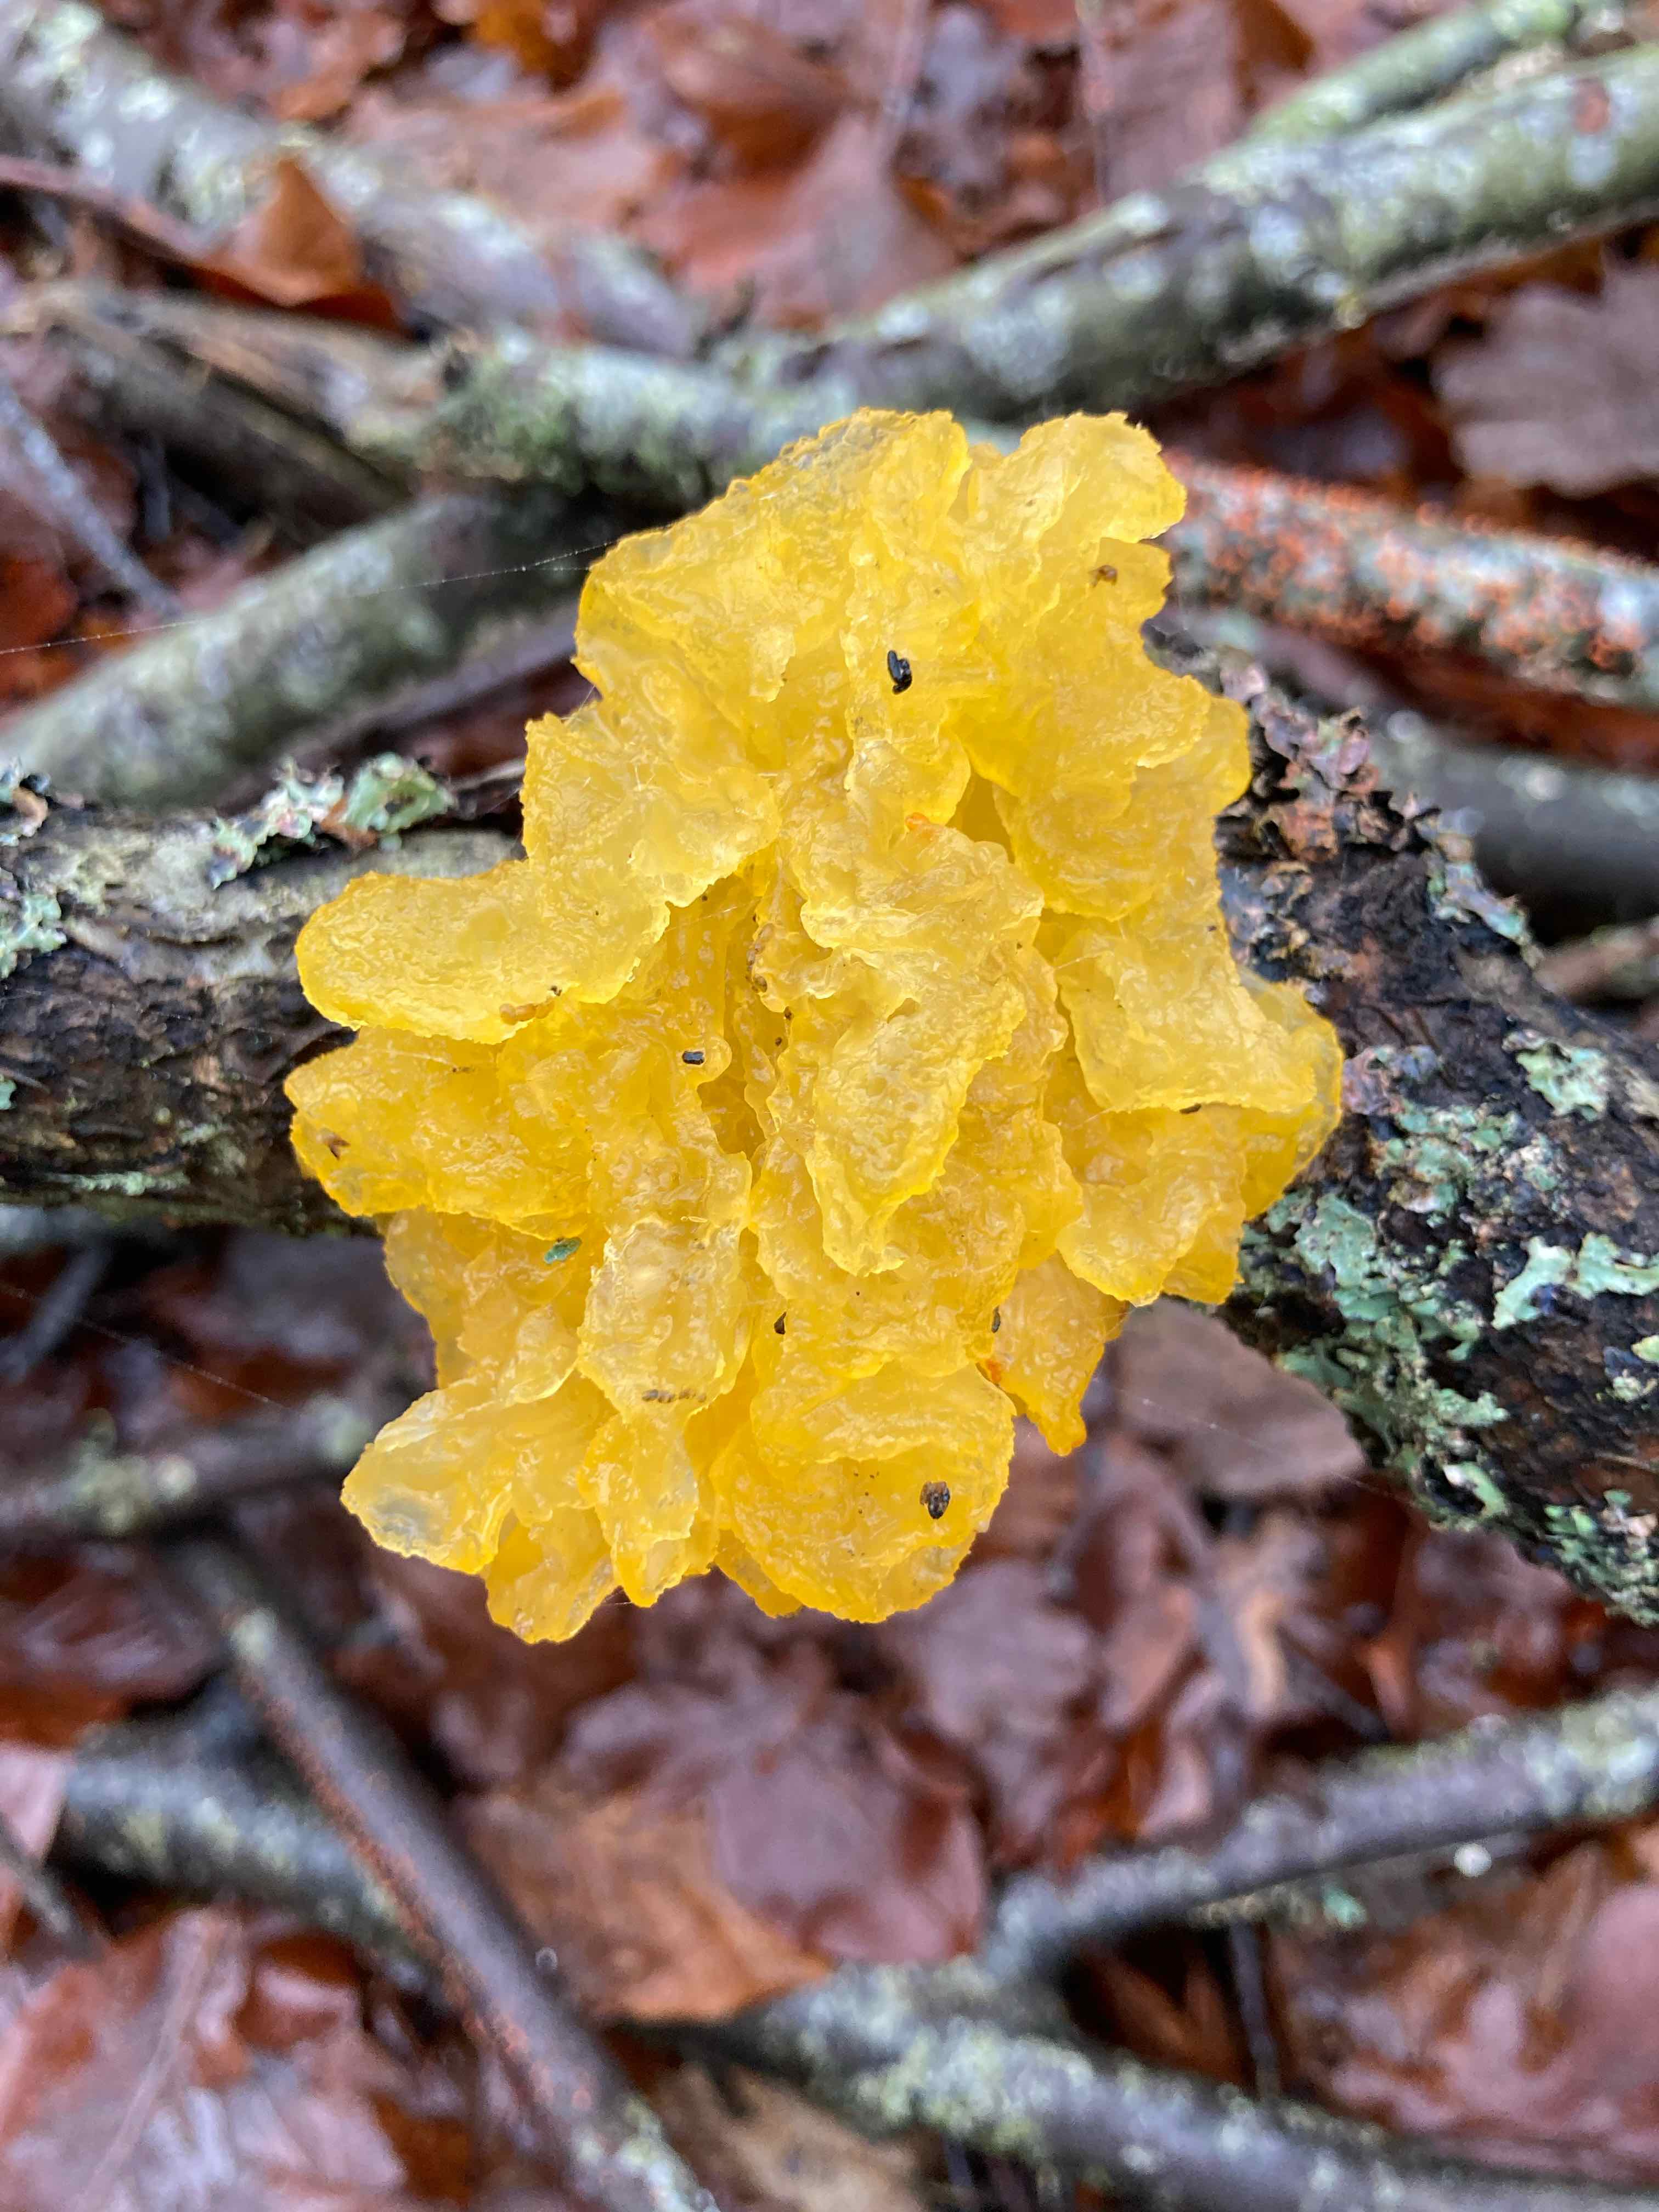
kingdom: Fungi
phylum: Basidiomycota
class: Tremellomycetes
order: Tremellales
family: Tremellaceae
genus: Tremella
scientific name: Tremella mesenterica
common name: gul bævresvamp
